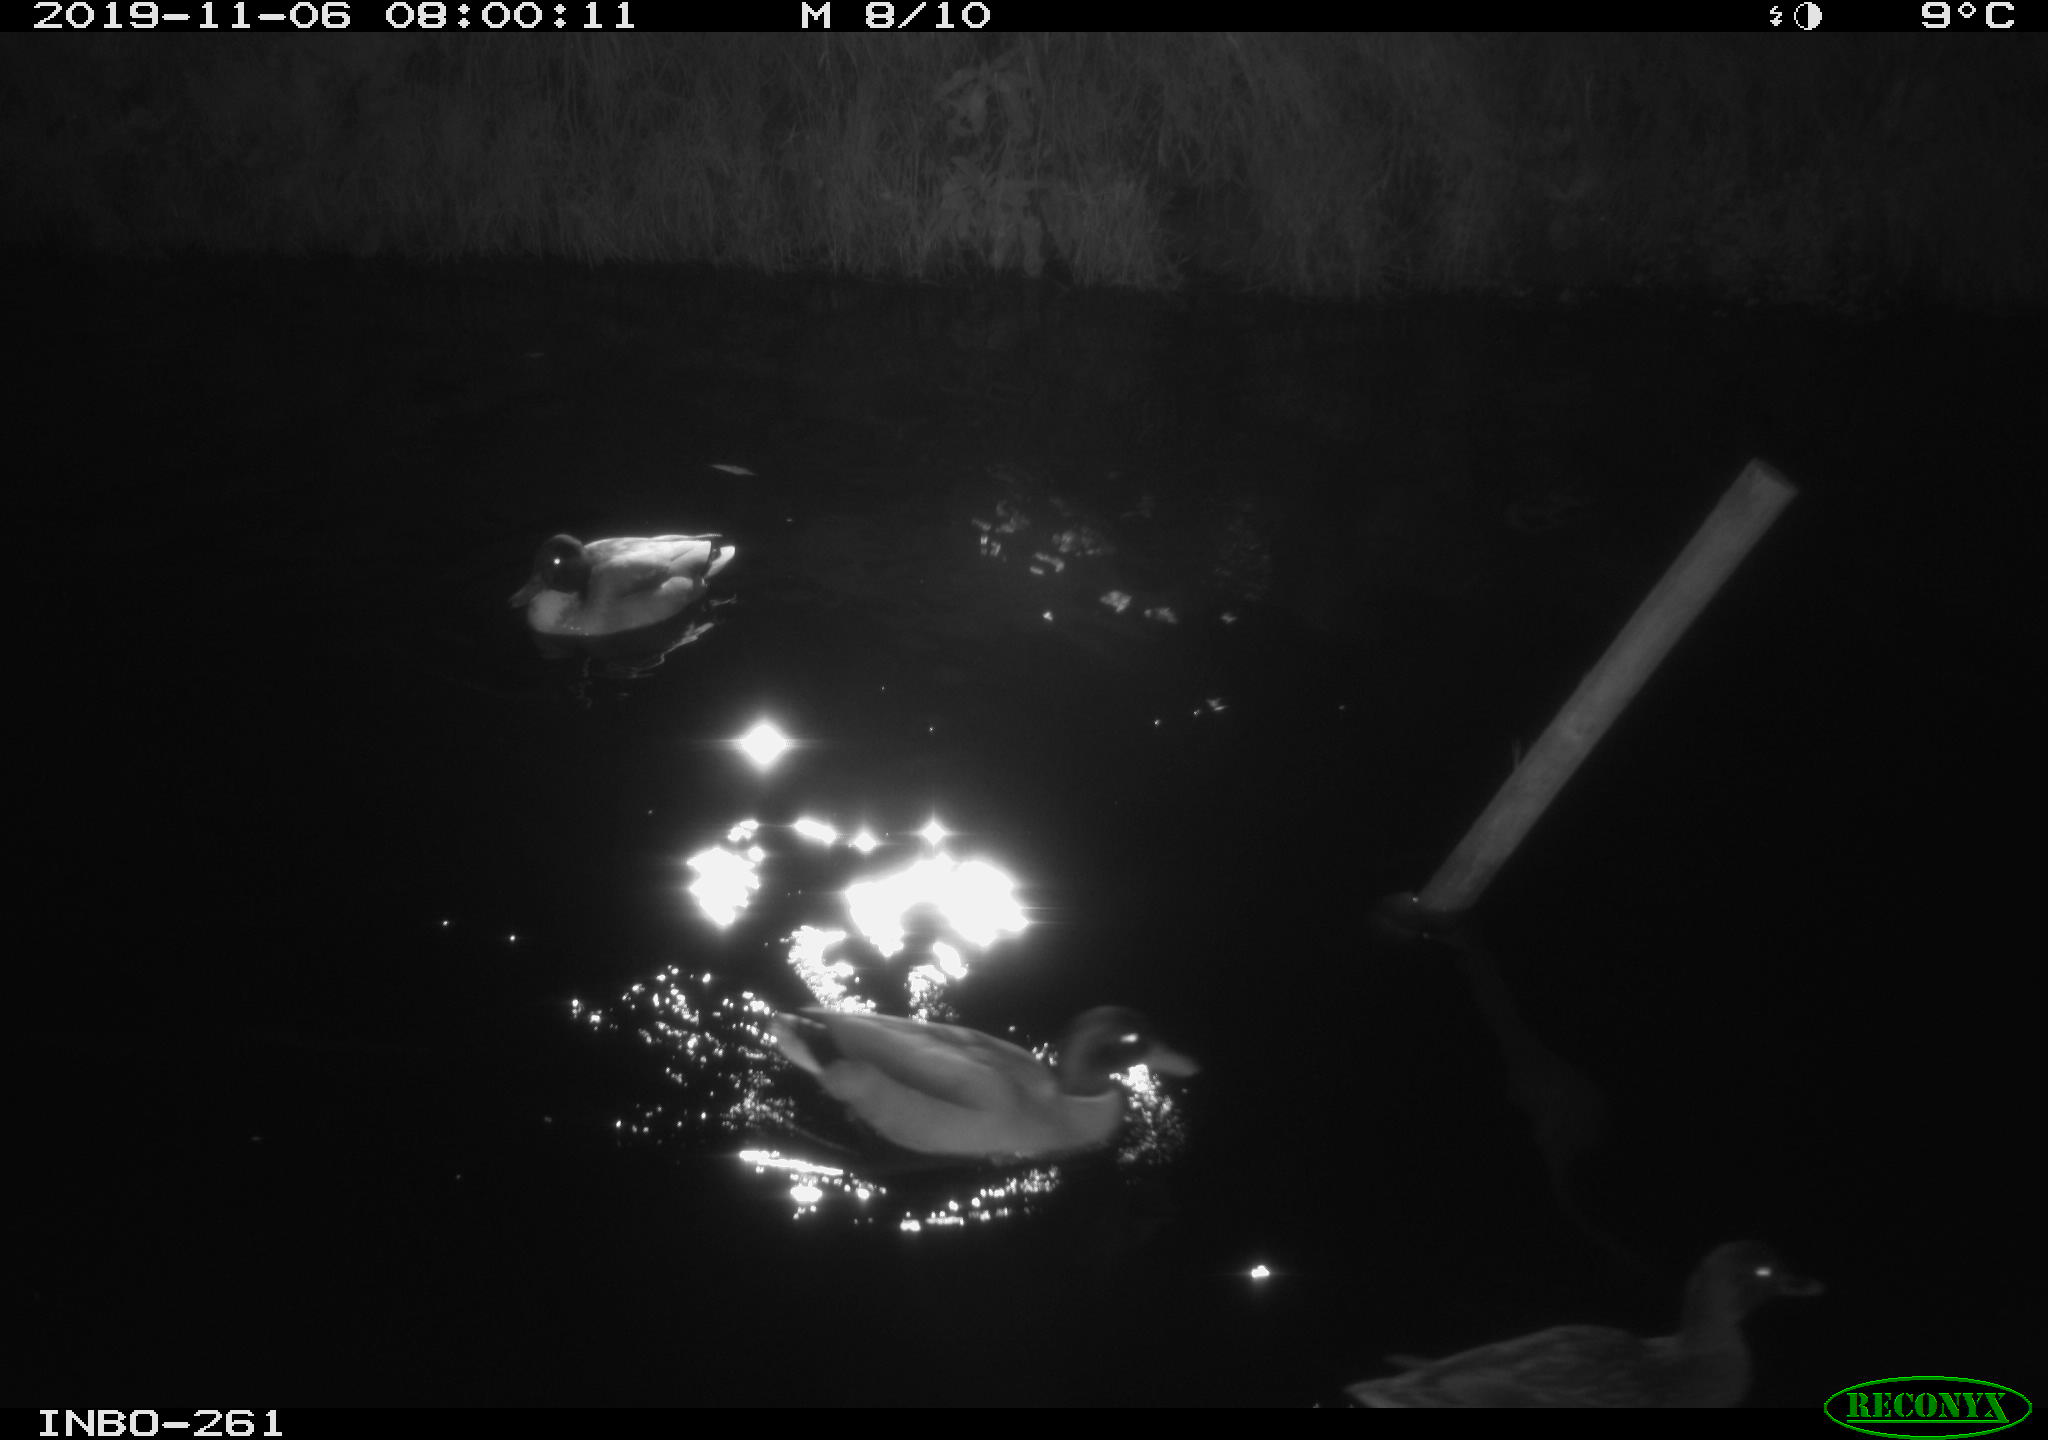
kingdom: Animalia
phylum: Chordata
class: Aves
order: Anseriformes
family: Anatidae
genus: Anas
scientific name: Anas platyrhynchos
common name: Mallard
